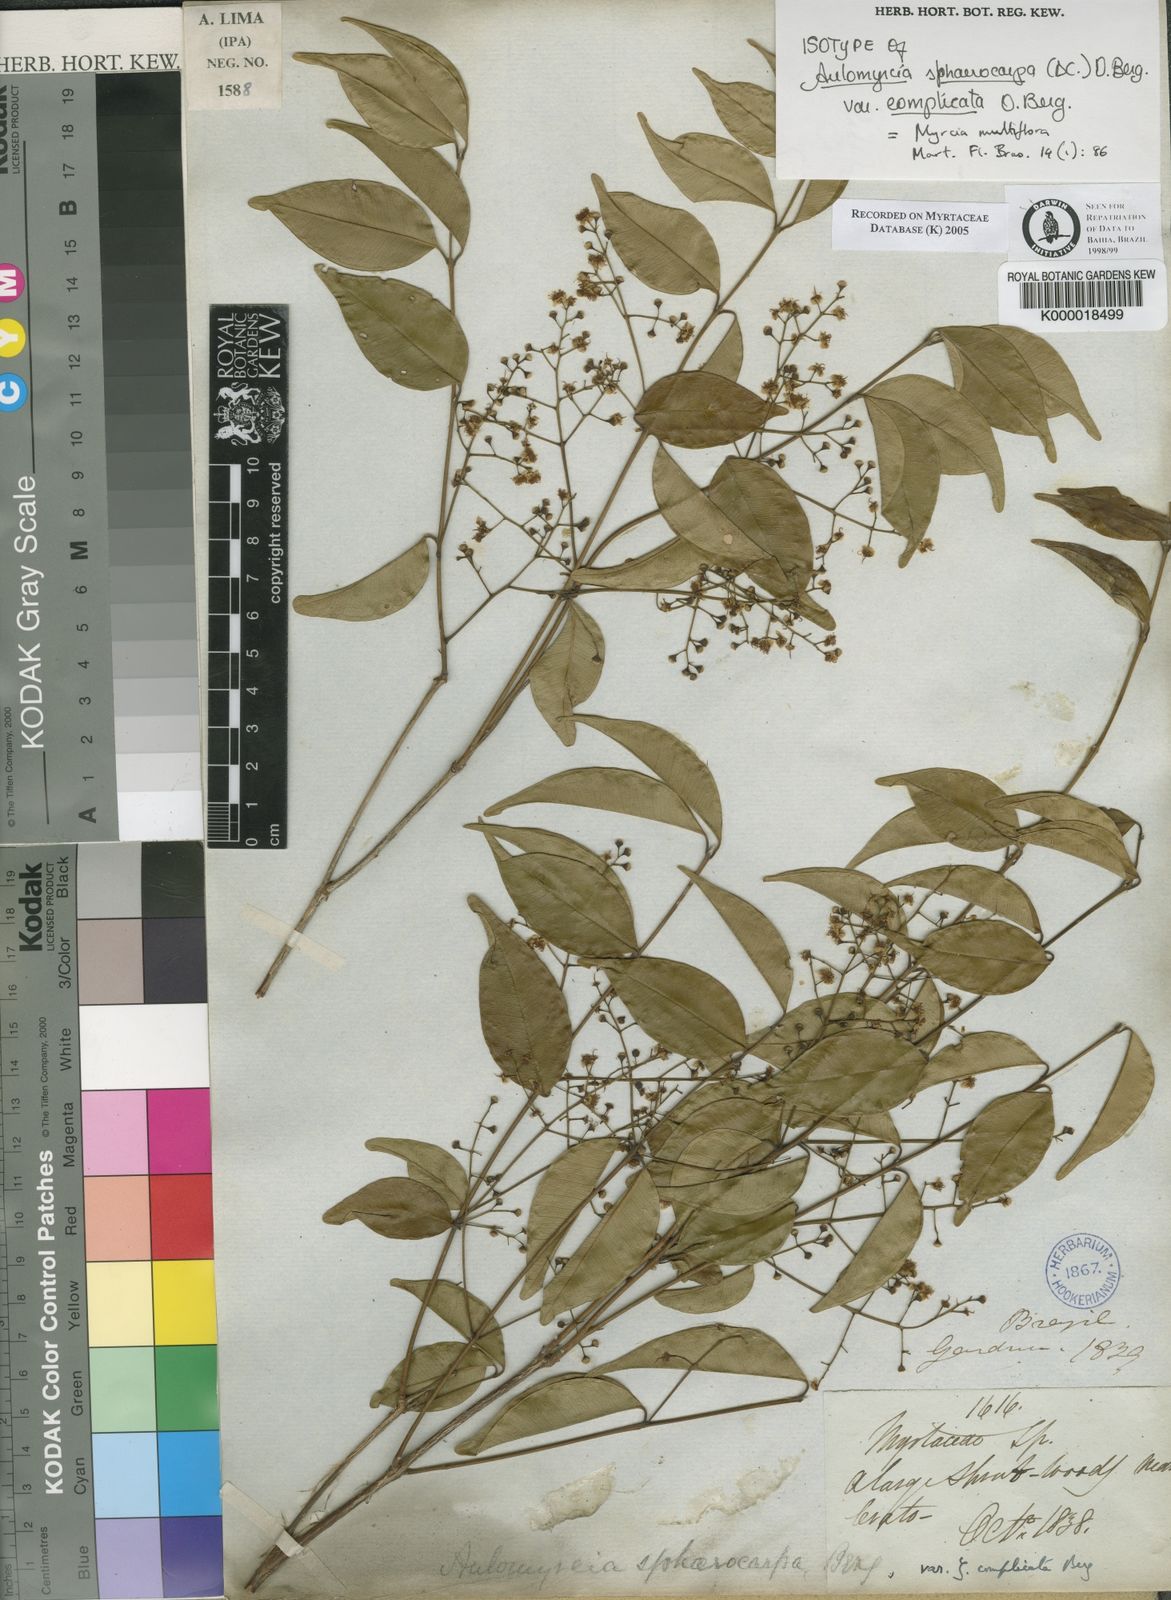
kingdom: Plantae
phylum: Tracheophyta
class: Magnoliopsida
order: Myrtales
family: Myrtaceae
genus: Myrcia
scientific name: Myrcia multiflora
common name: Pedra hume
